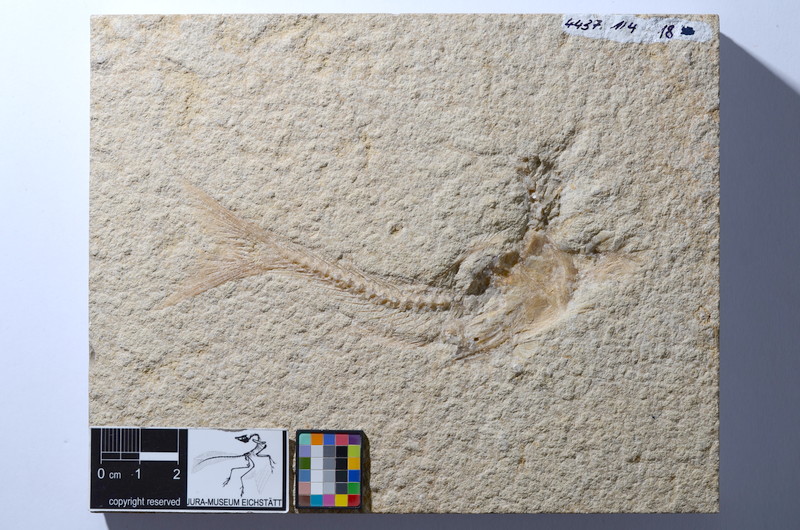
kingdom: Animalia
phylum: Chordata
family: Ascalaboidae
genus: Tharsis
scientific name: Tharsis dubius
